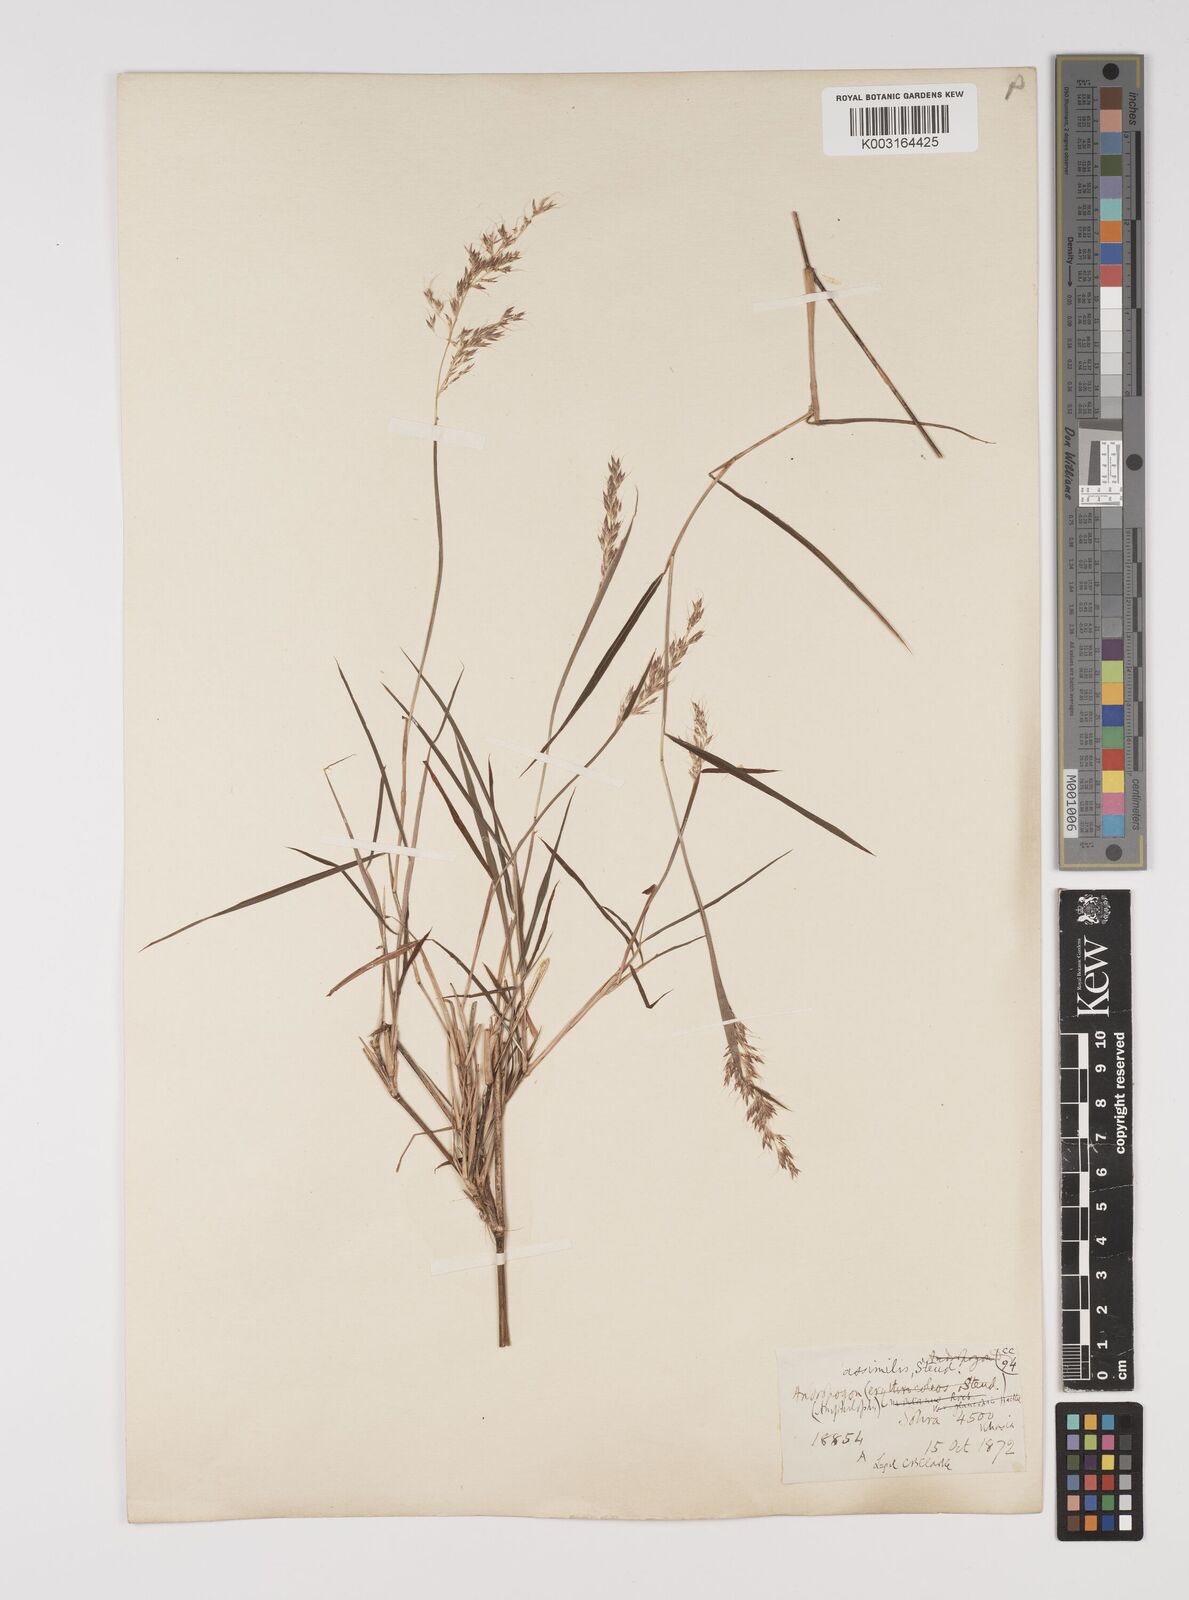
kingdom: Plantae
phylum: Tracheophyta
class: Liliopsida
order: Poales
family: Poaceae
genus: Capillipedium
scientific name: Capillipedium assimile
